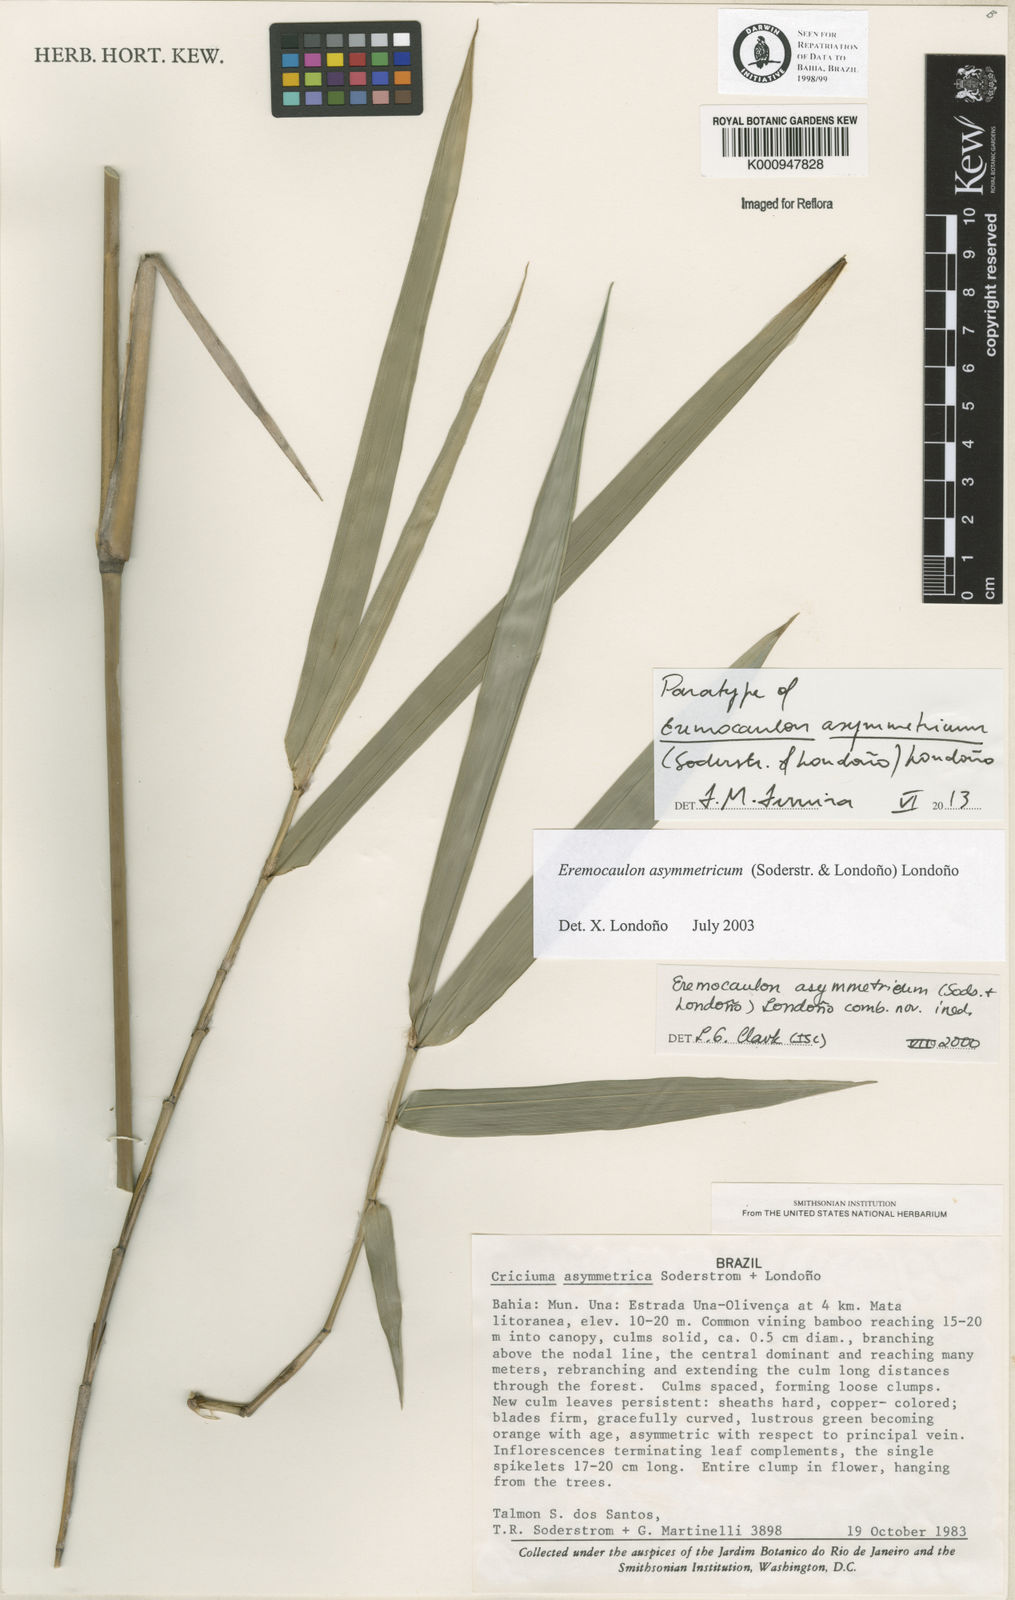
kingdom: Plantae
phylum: Tracheophyta
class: Liliopsida
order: Poales
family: Poaceae
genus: Eremocaulon
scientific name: Eremocaulon
